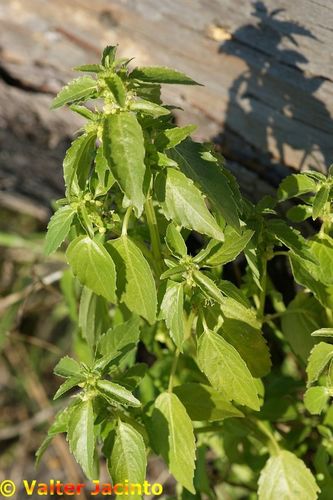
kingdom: Plantae
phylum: Tracheophyta
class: Magnoliopsida
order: Malpighiales
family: Euphorbiaceae
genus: Mercurialis
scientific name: Mercurialis annua
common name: Annual mercury
